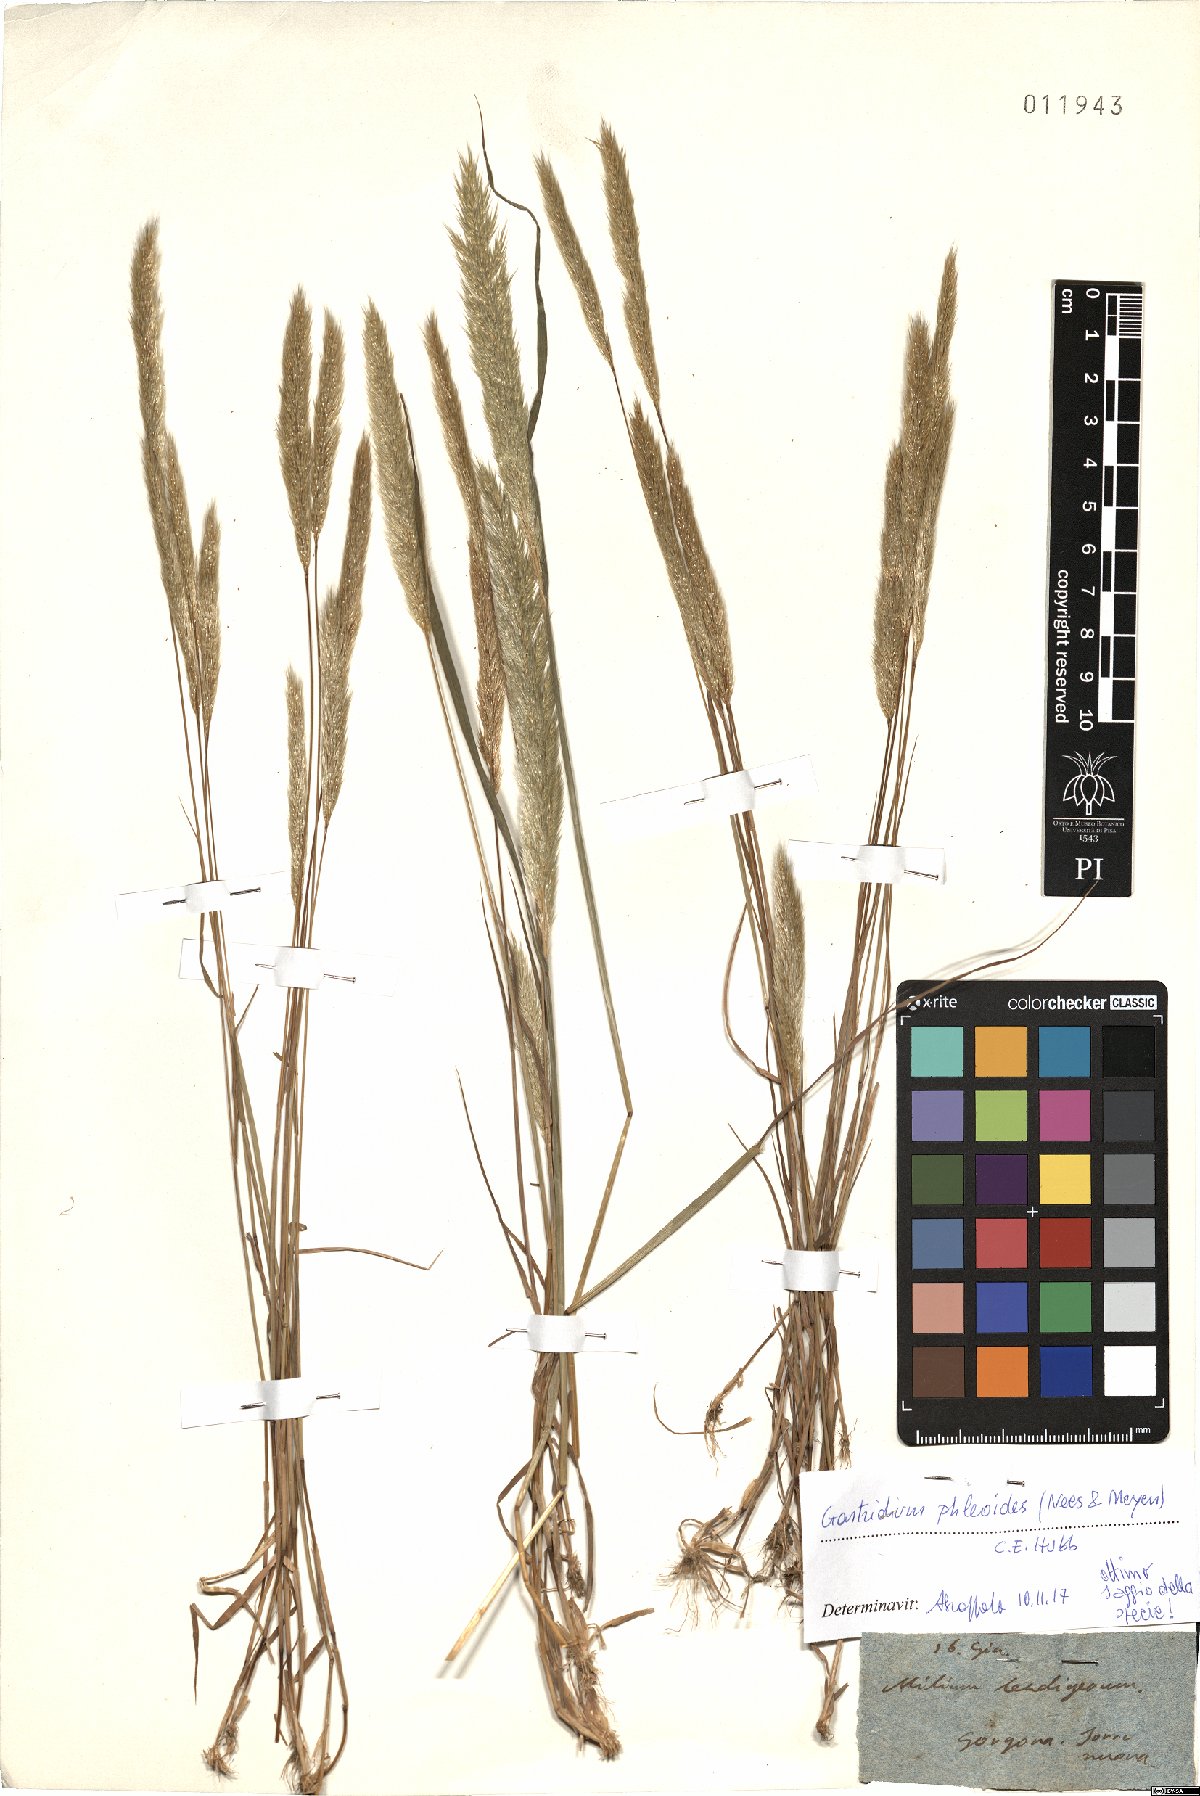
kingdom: Plantae
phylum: Tracheophyta
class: Liliopsida
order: Poales
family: Poaceae
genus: Gastridium
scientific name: Gastridium phleoides
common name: Nit grass
